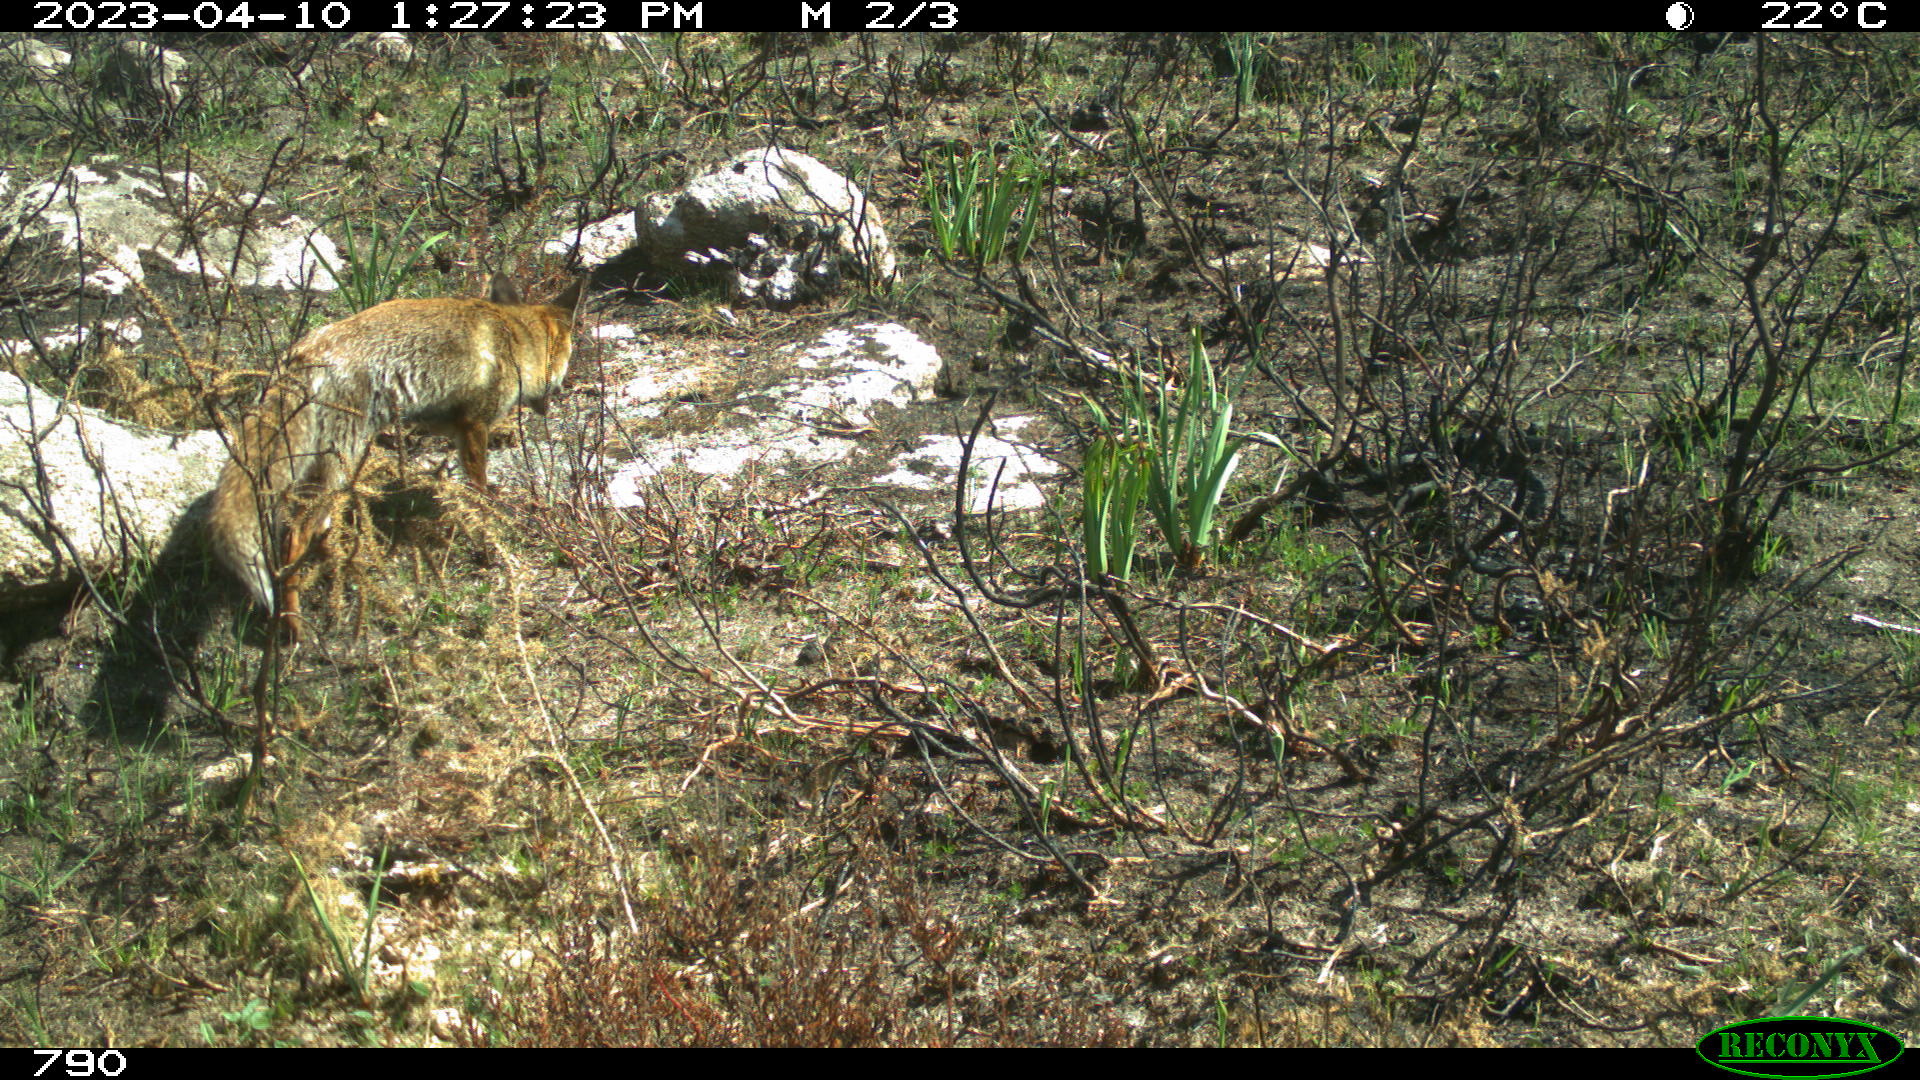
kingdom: Animalia
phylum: Chordata
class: Mammalia
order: Carnivora
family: Canidae
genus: Vulpes
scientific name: Vulpes vulpes
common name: Red fox
